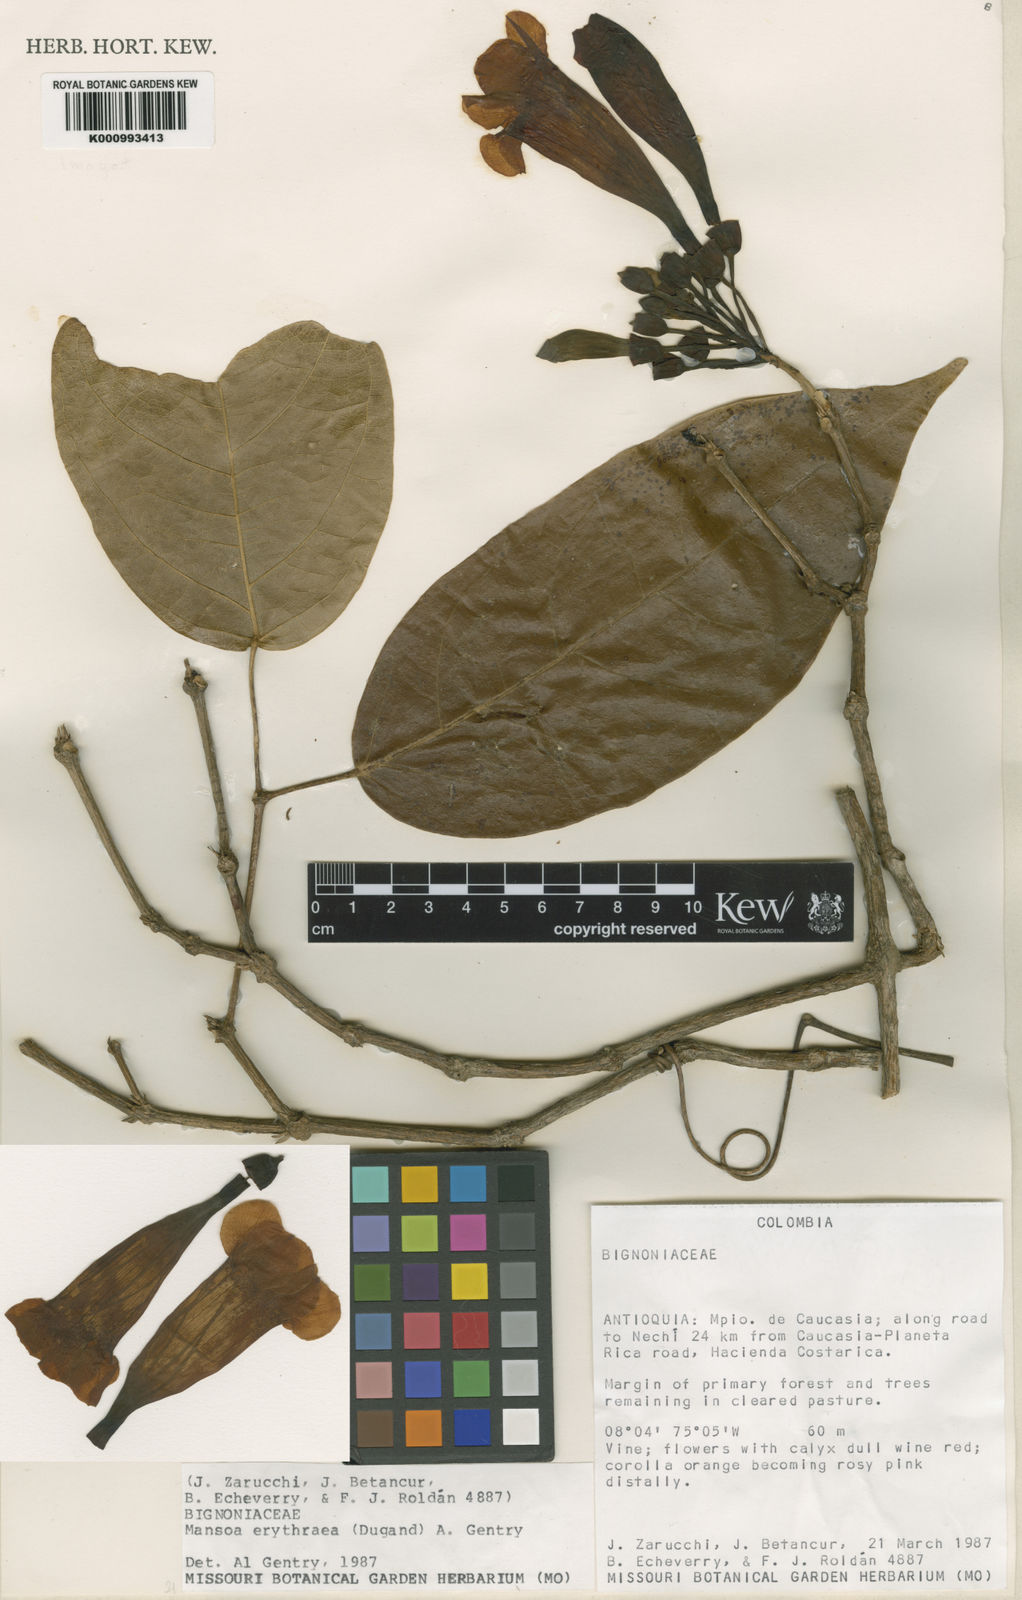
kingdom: Plantae
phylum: Tracheophyta
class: Magnoliopsida
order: Lamiales
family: Bignoniaceae
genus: Pachyptera
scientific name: Pachyptera erythraea
